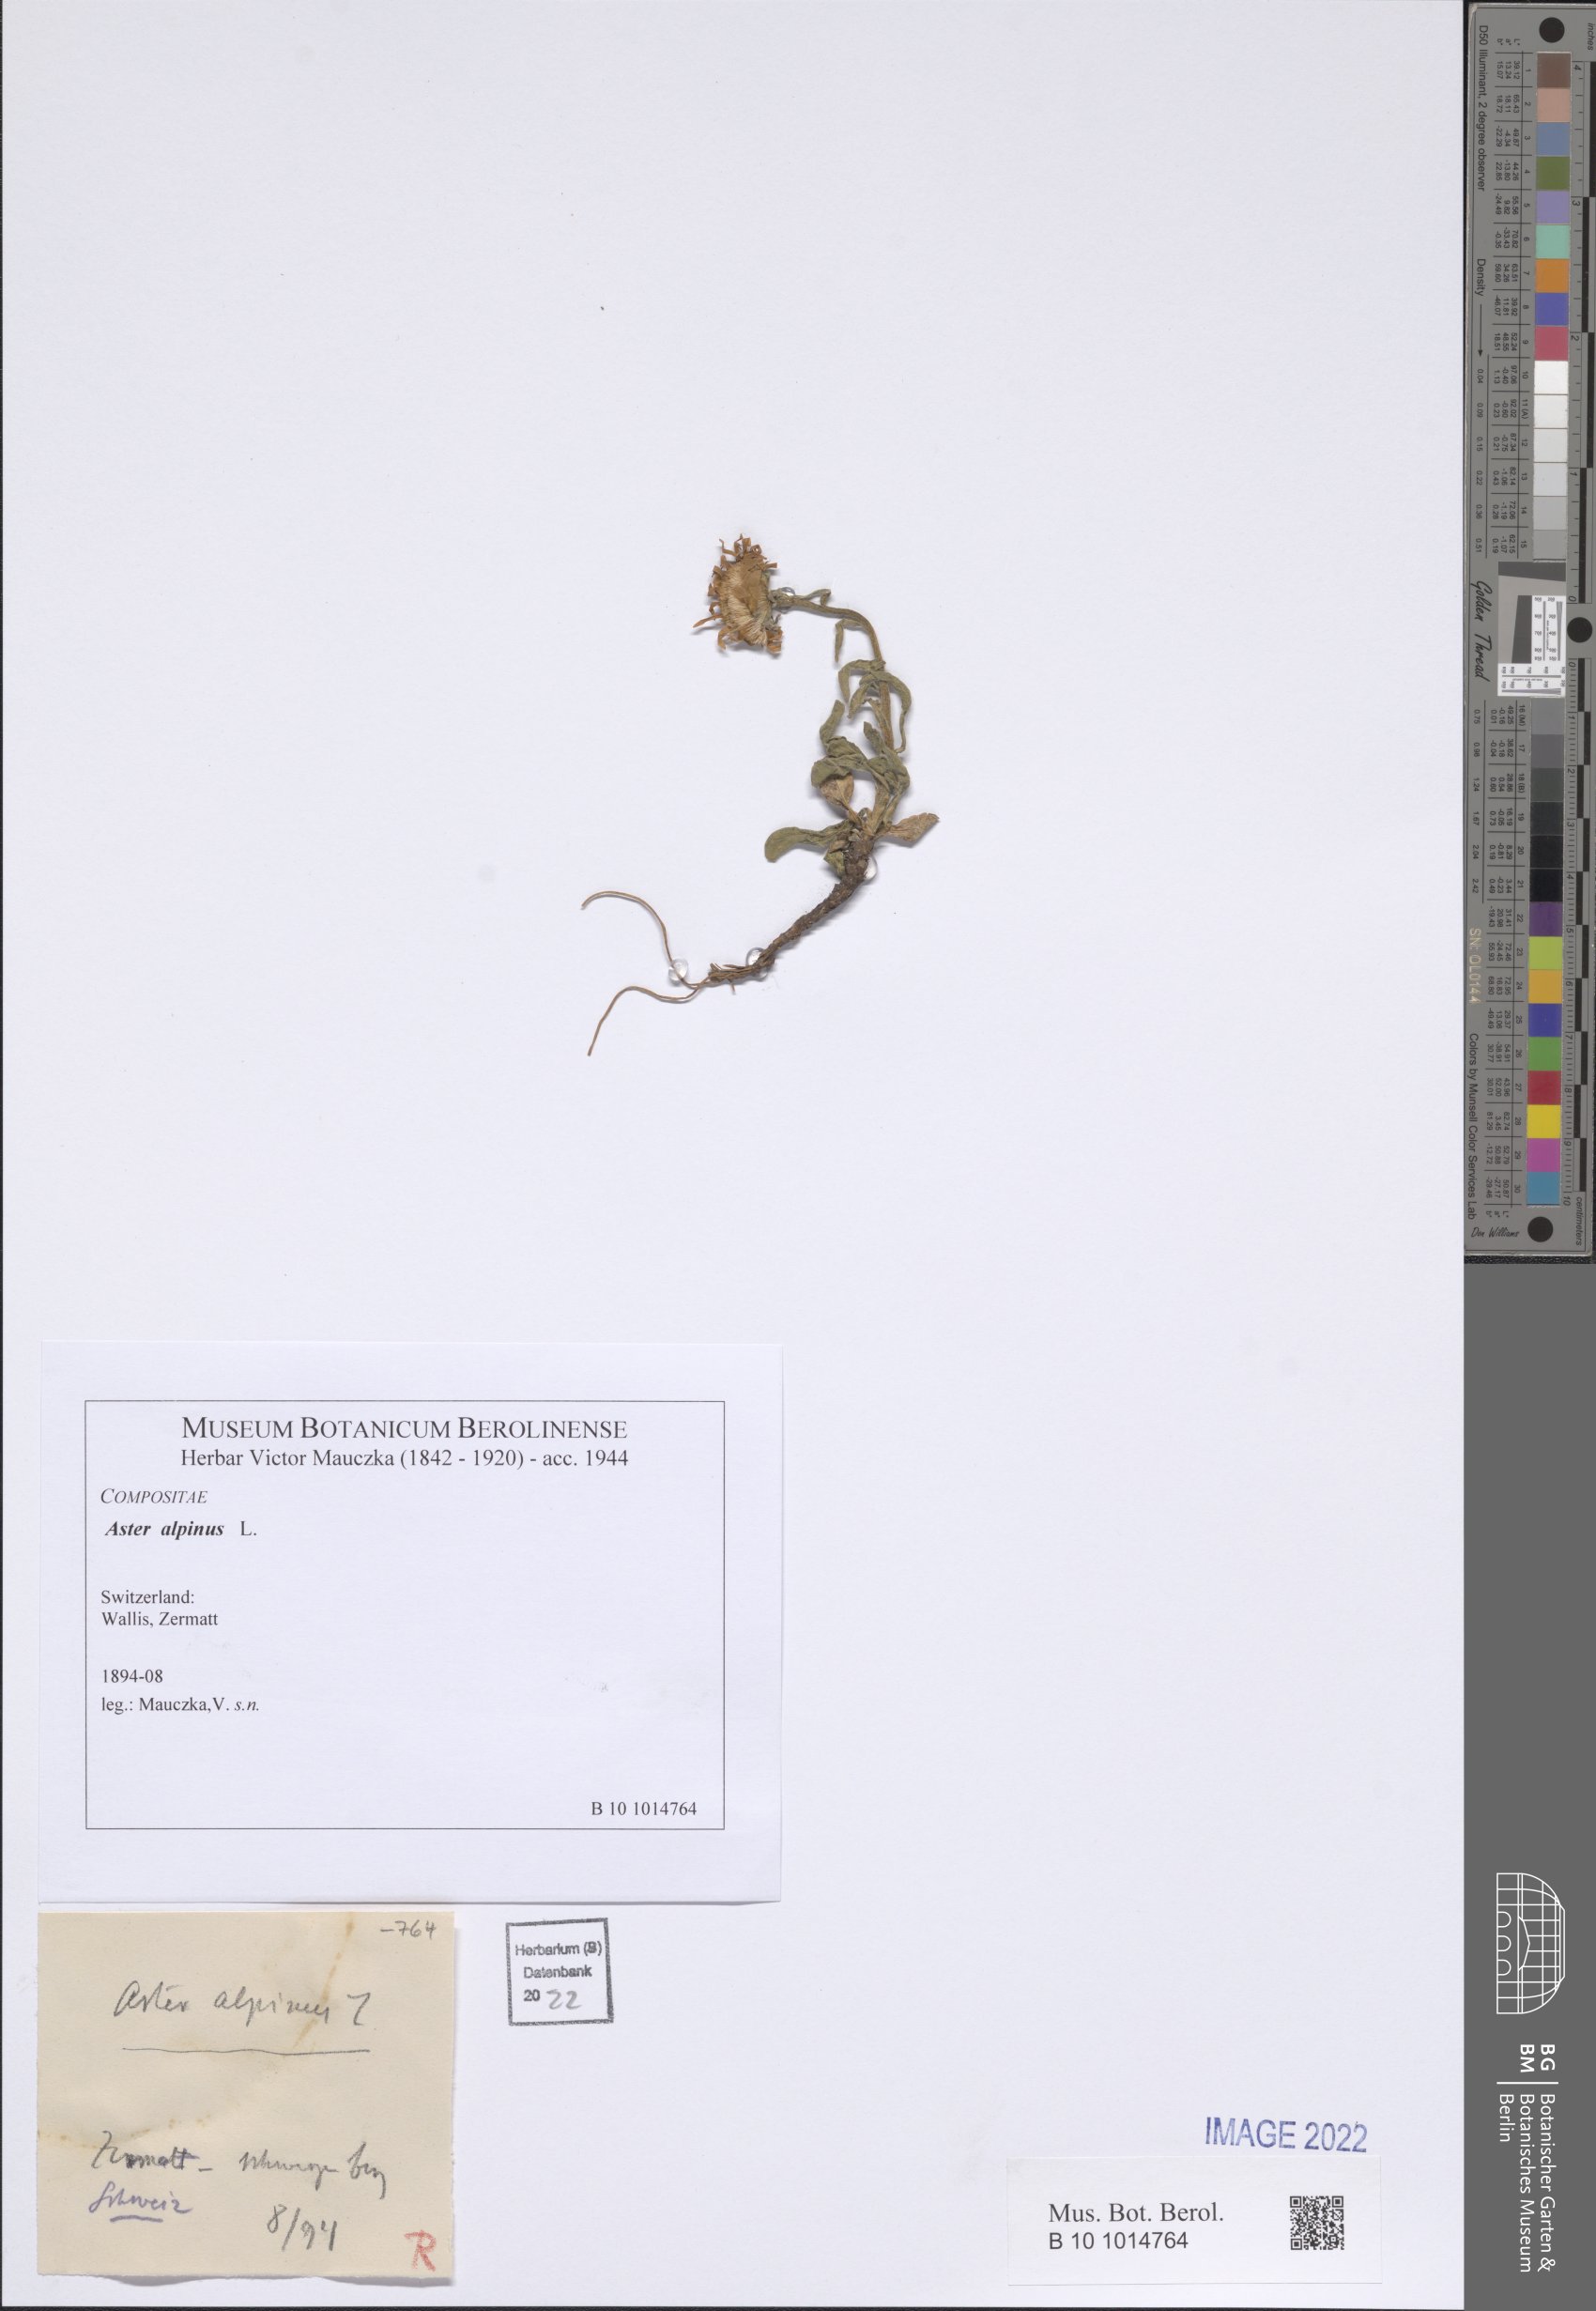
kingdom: Plantae
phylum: Tracheophyta
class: Magnoliopsida
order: Asterales
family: Asteraceae
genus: Aster
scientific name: Aster alpinus
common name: Alpine aster
